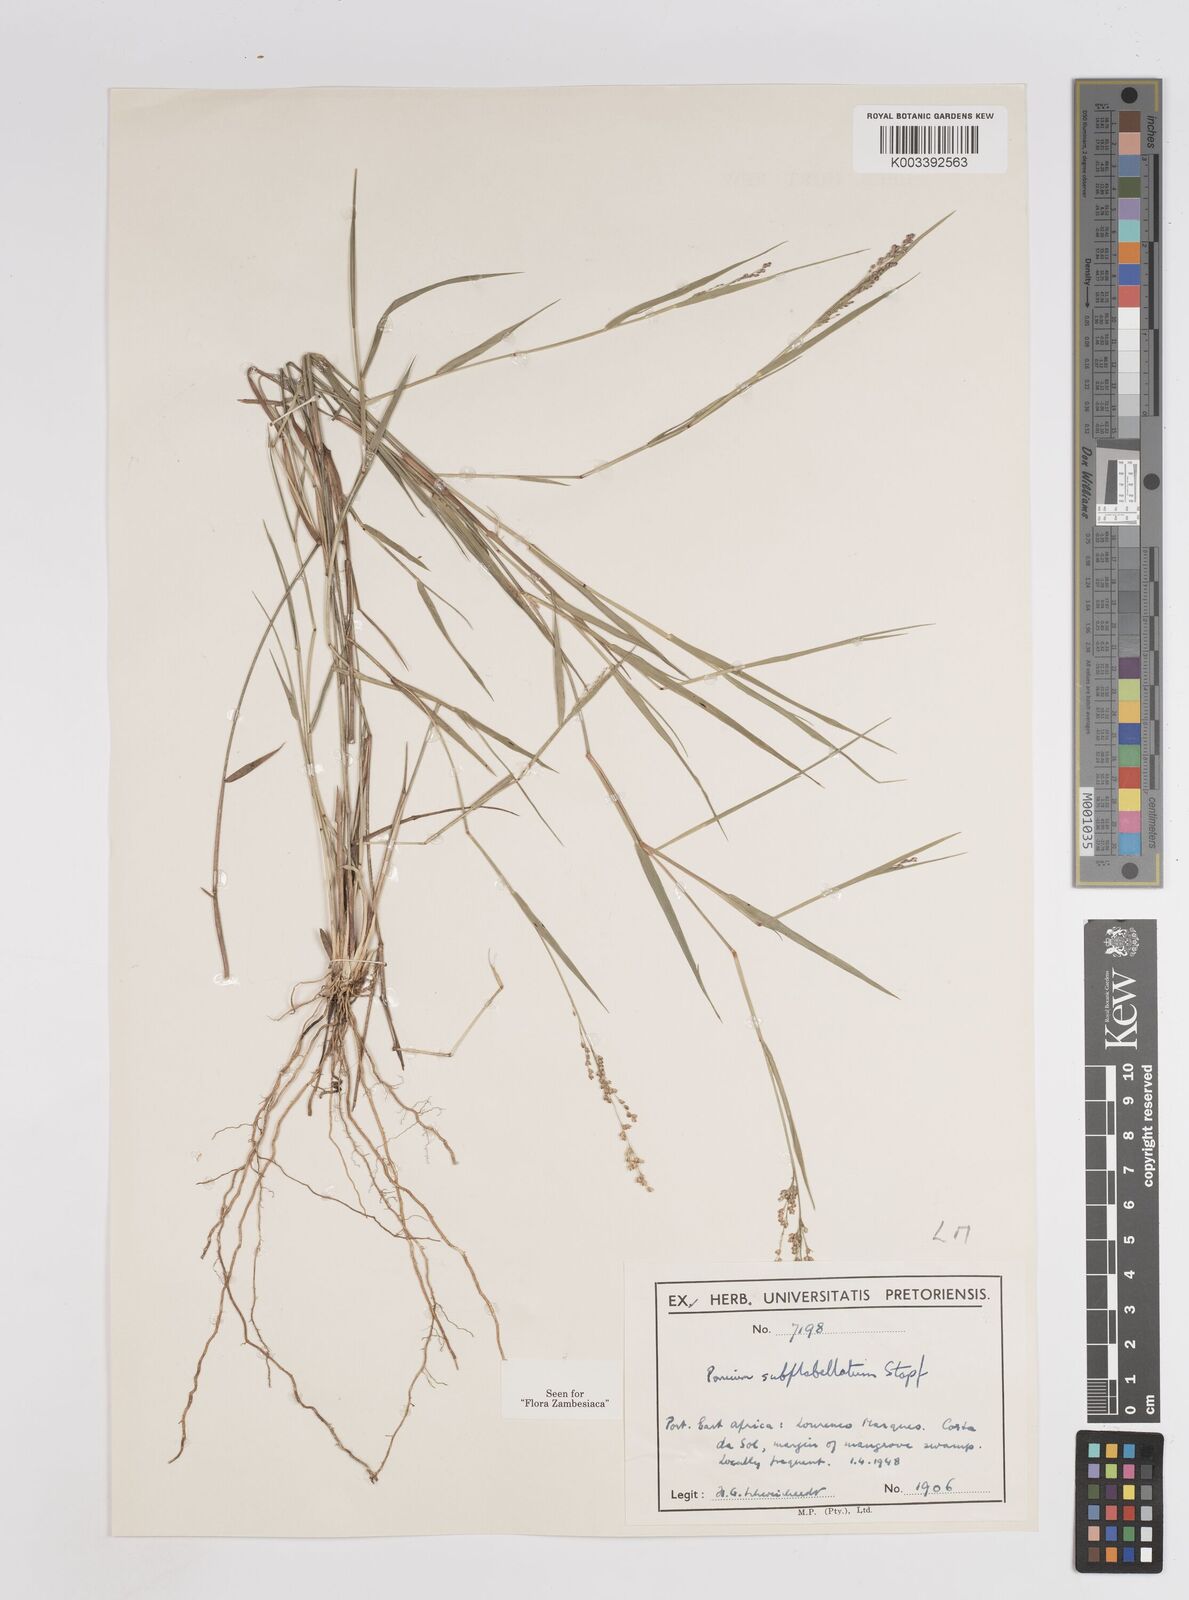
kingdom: Plantae
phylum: Tracheophyta
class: Liliopsida
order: Poales
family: Poaceae
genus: Panicum
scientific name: Panicum subflabellatum
